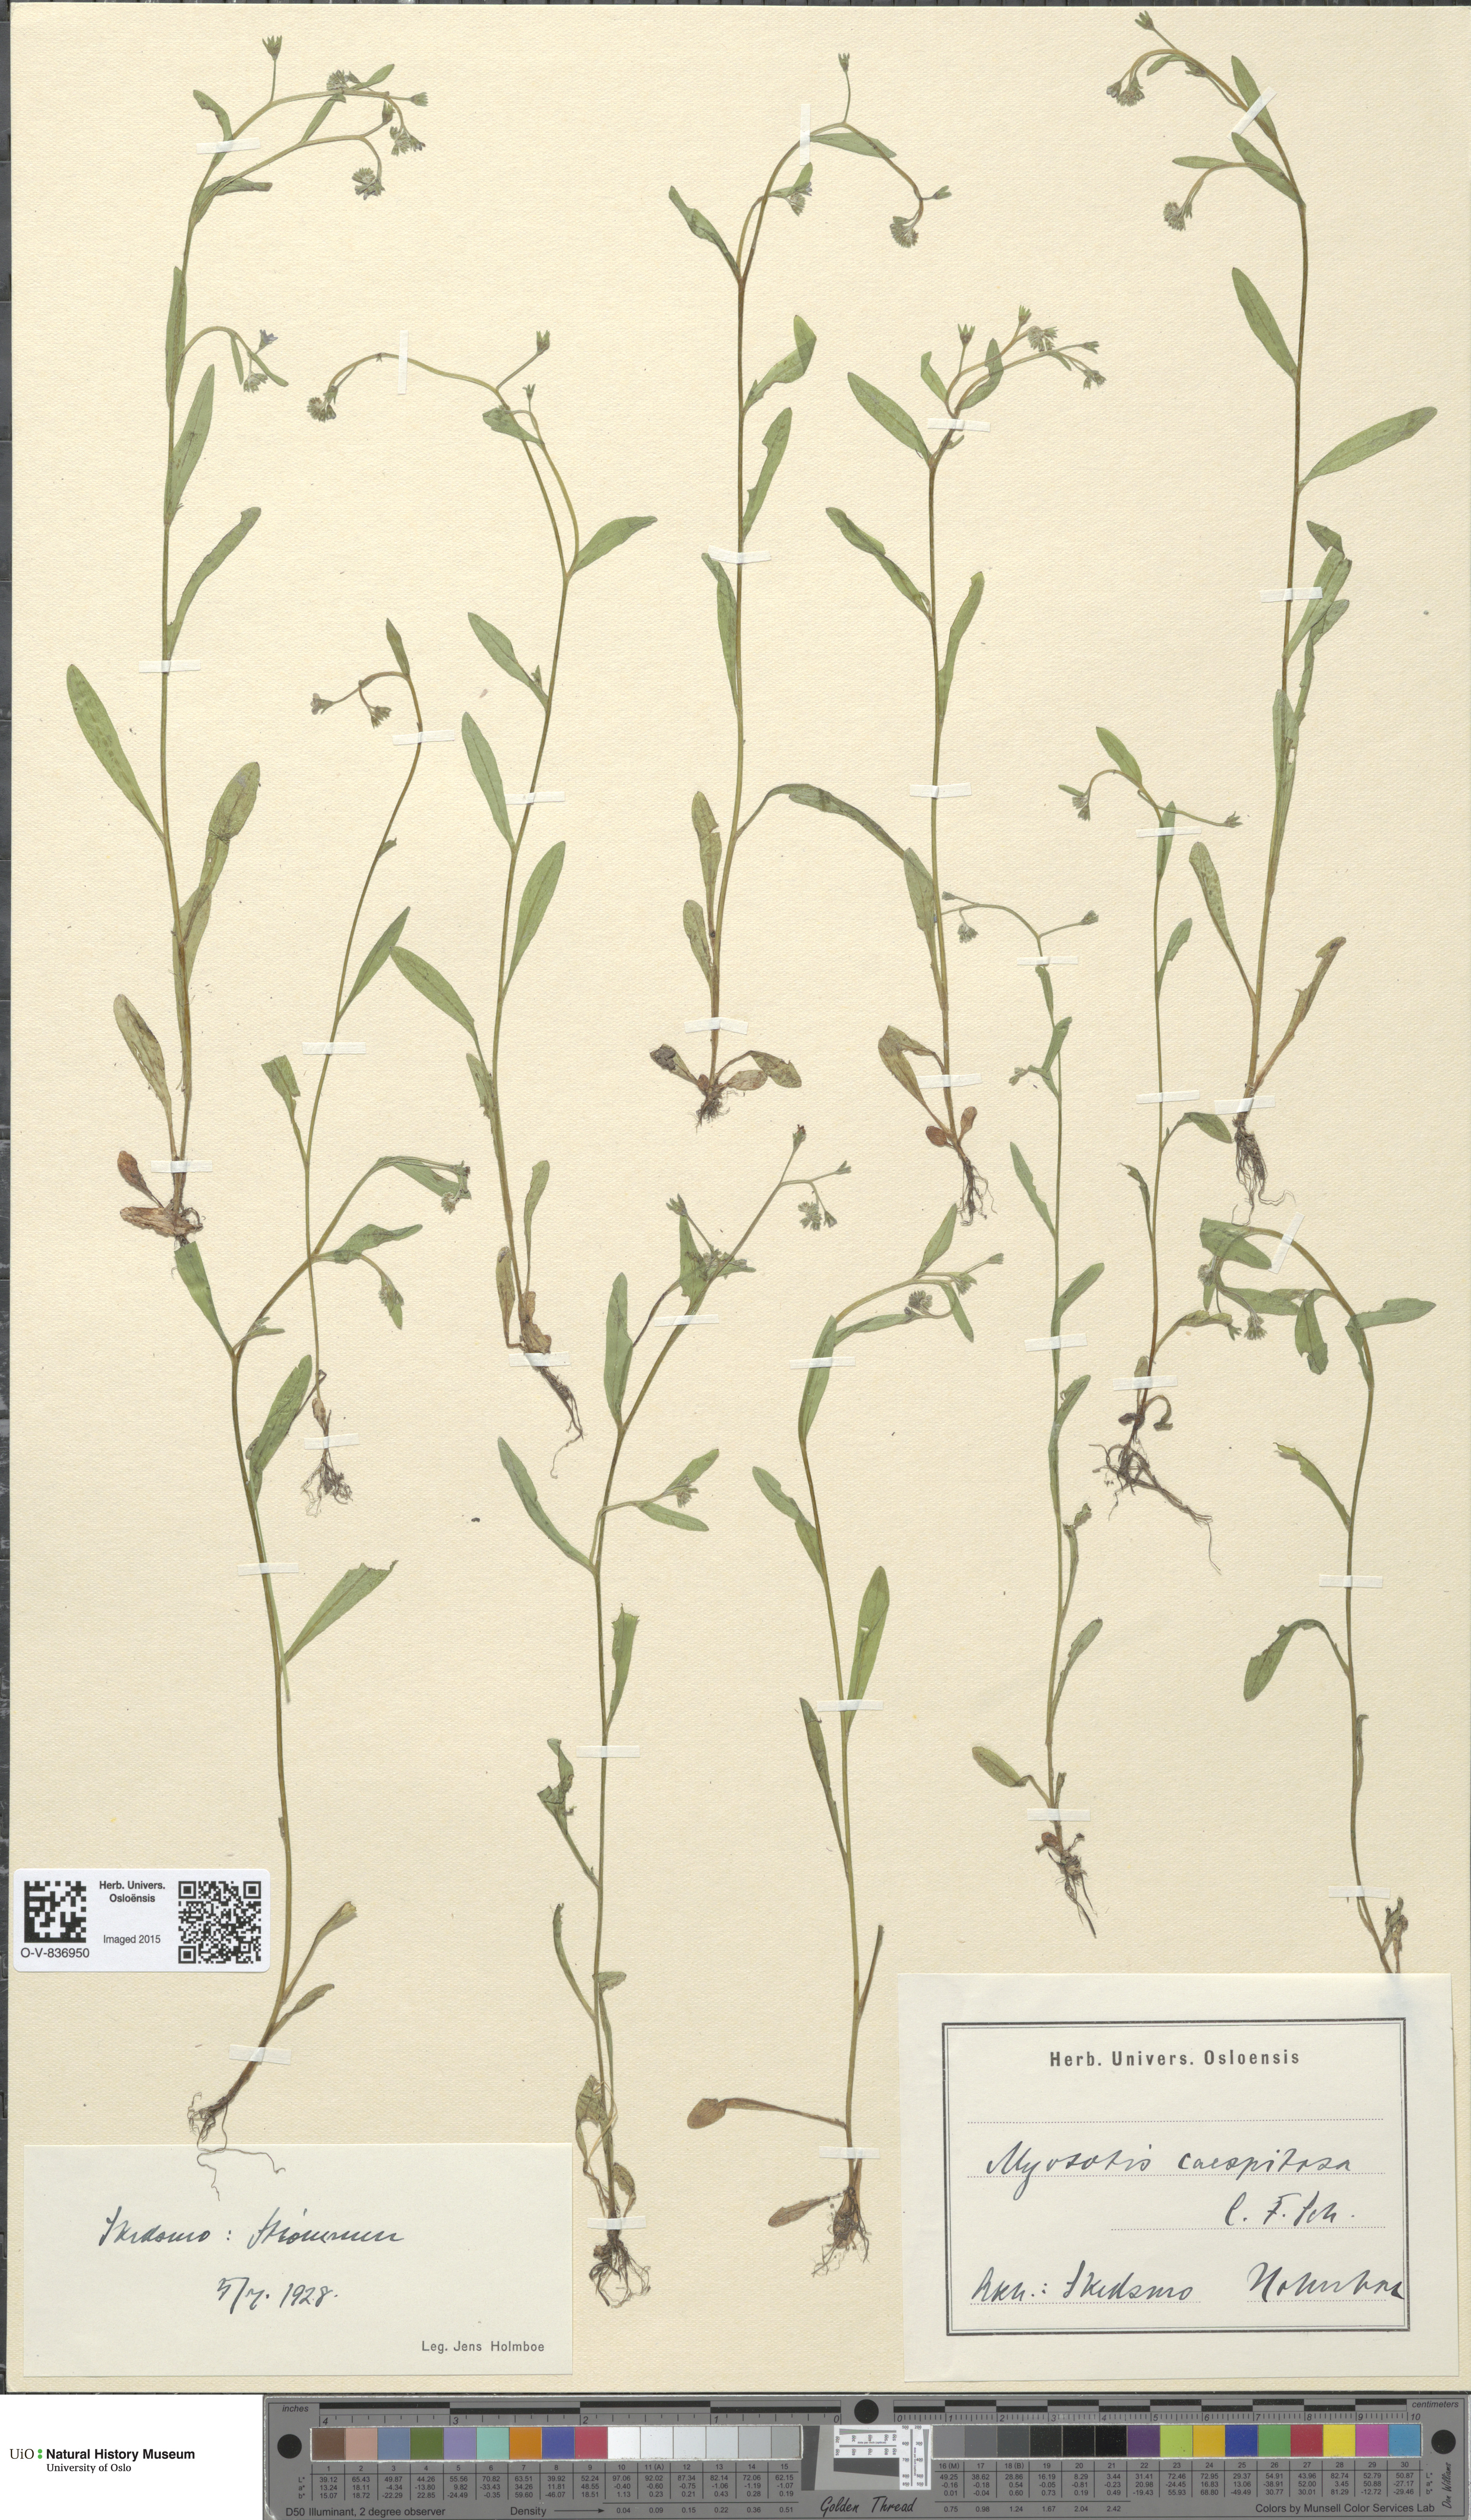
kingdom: Plantae
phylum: Tracheophyta
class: Magnoliopsida
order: Boraginales
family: Boraginaceae
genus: Myosotis
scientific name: Myosotis laxa
